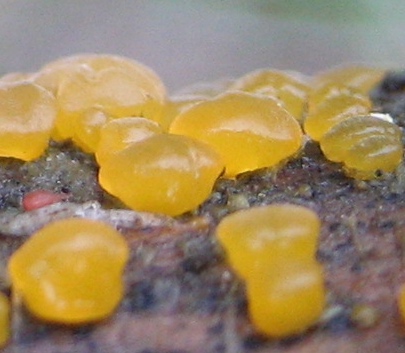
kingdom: Fungi
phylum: Basidiomycota
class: Dacrymycetes
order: Dacrymycetales
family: Dacrymycetaceae
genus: Dacrymyces
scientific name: Dacrymyces
